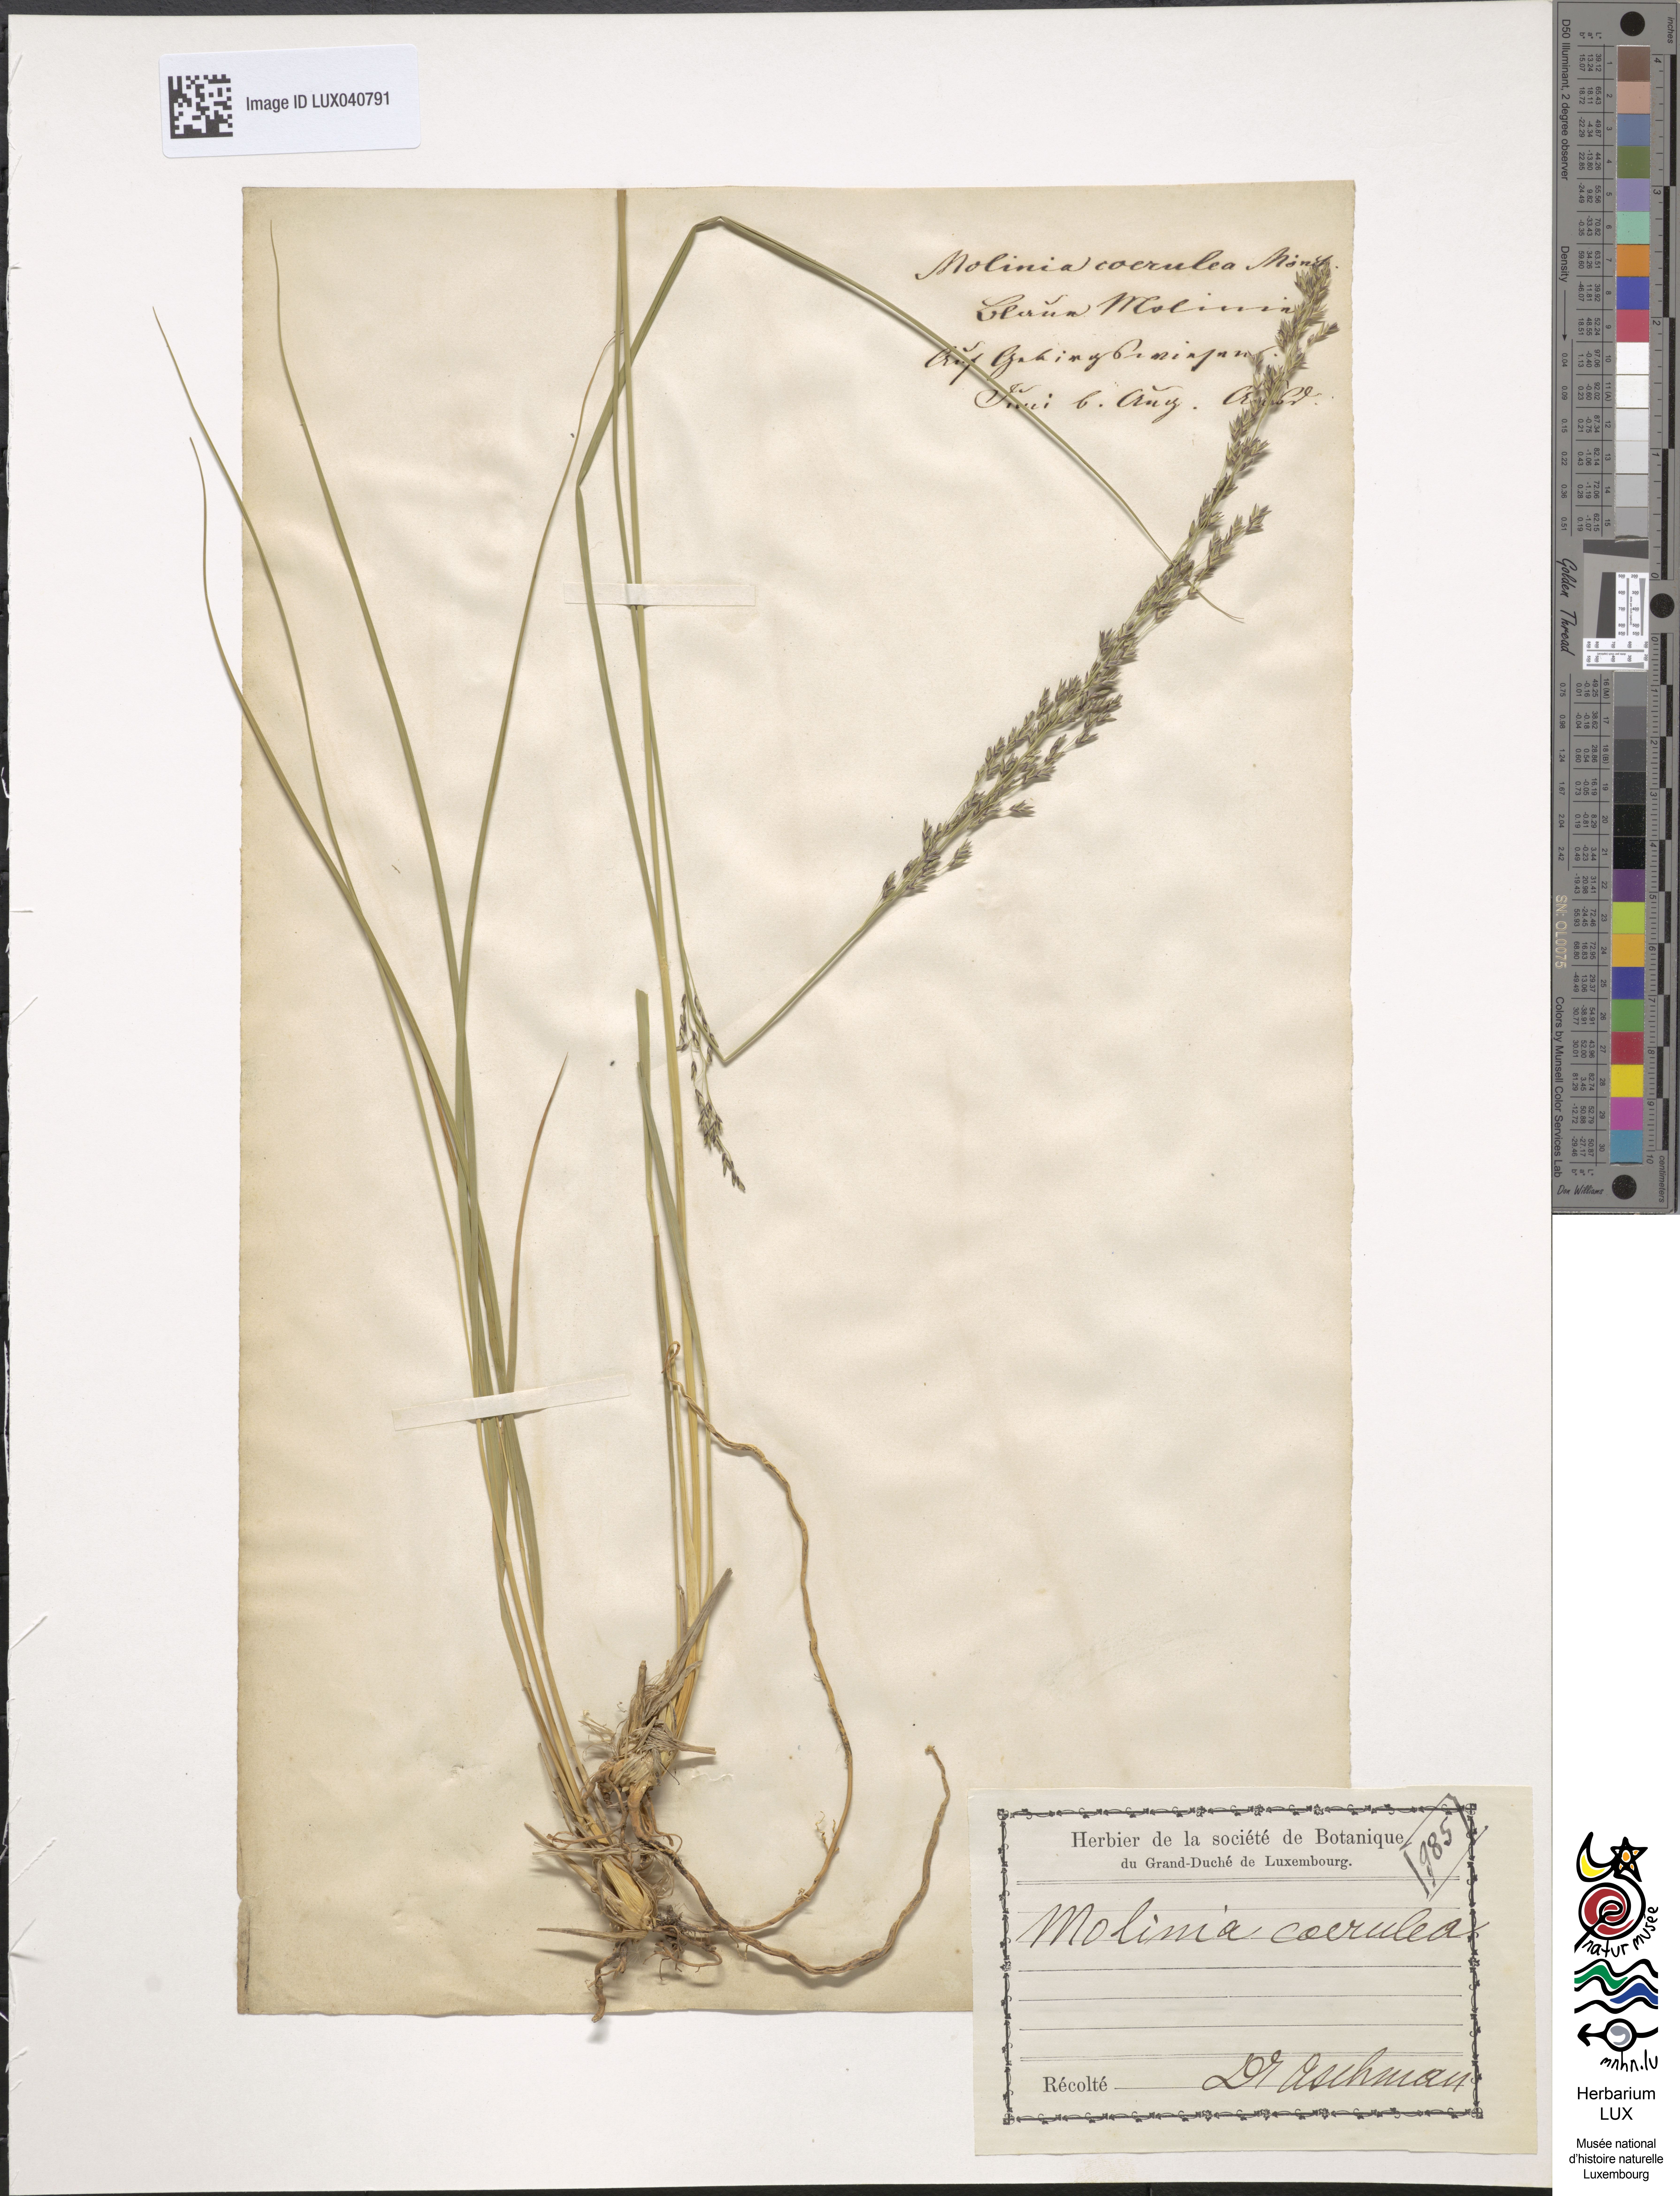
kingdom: Plantae
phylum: Tracheophyta
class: Liliopsida
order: Poales
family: Poaceae
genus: Molinia
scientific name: Molinia caerulea
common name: Purple moor-grass
